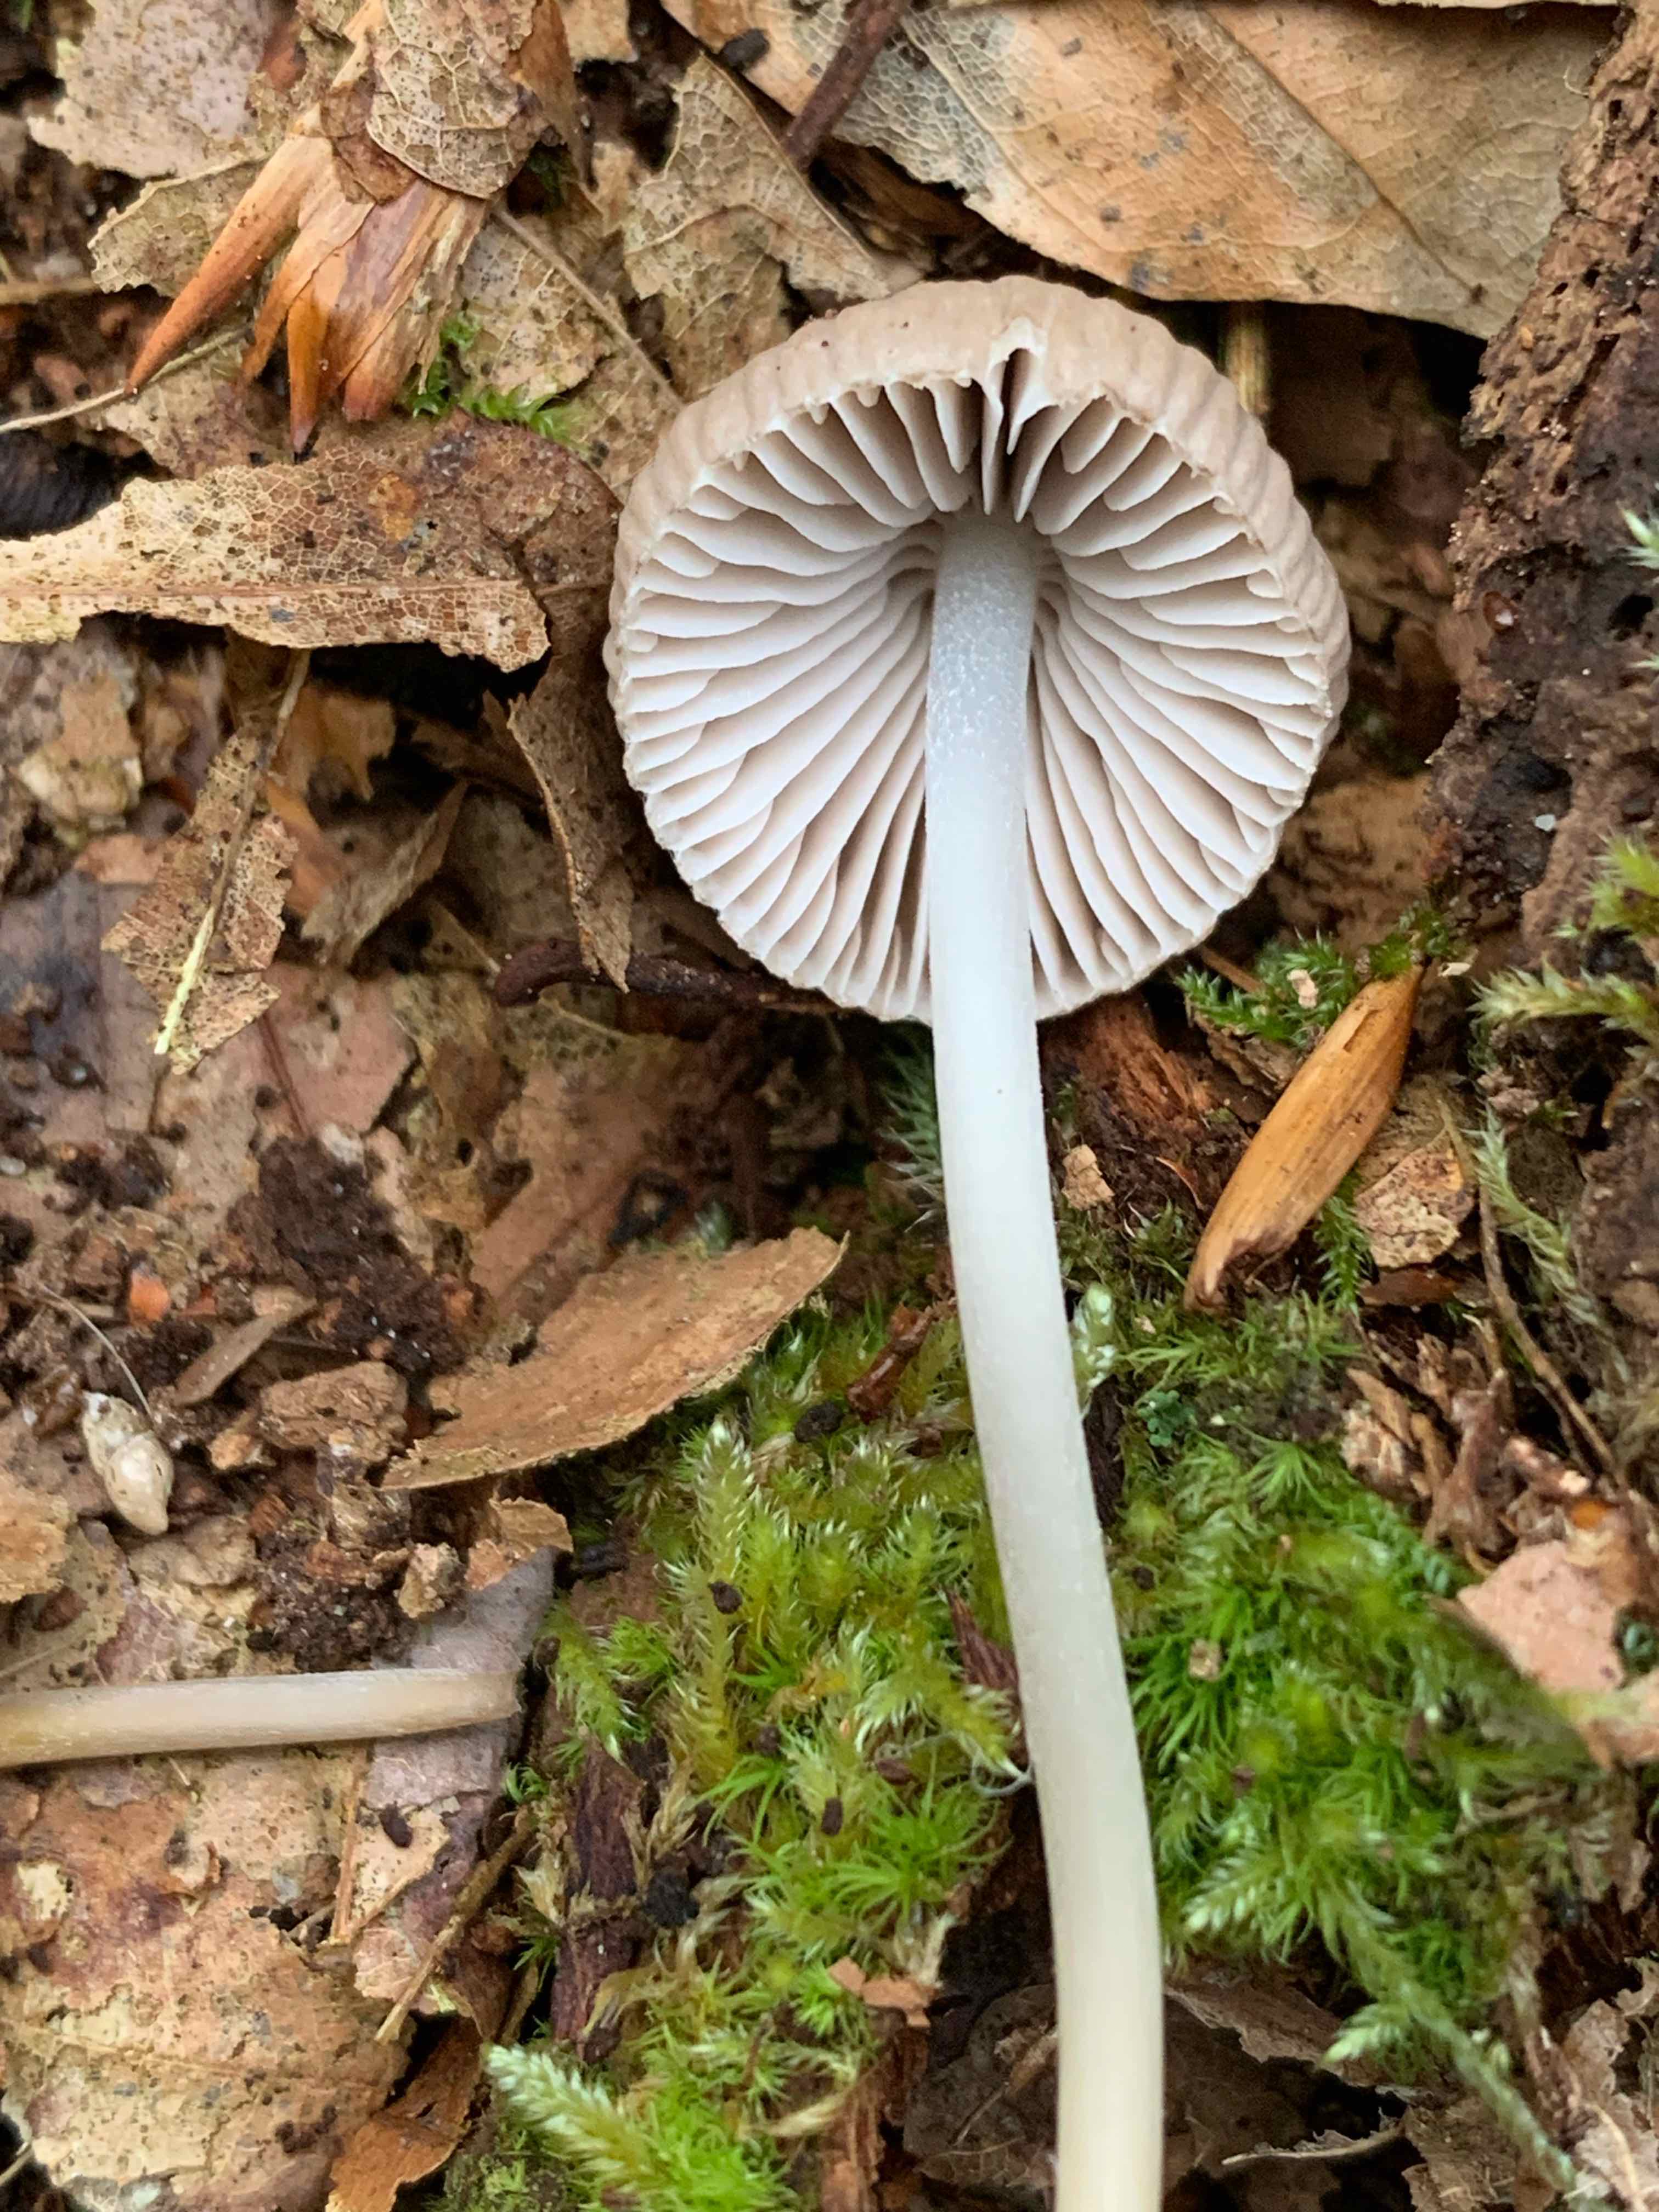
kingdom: Fungi
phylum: Basidiomycota
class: Agaricomycetes
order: Agaricales
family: Mycenaceae
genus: Mycena
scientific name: Mycena inclinata
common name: nikkende huesvamp
